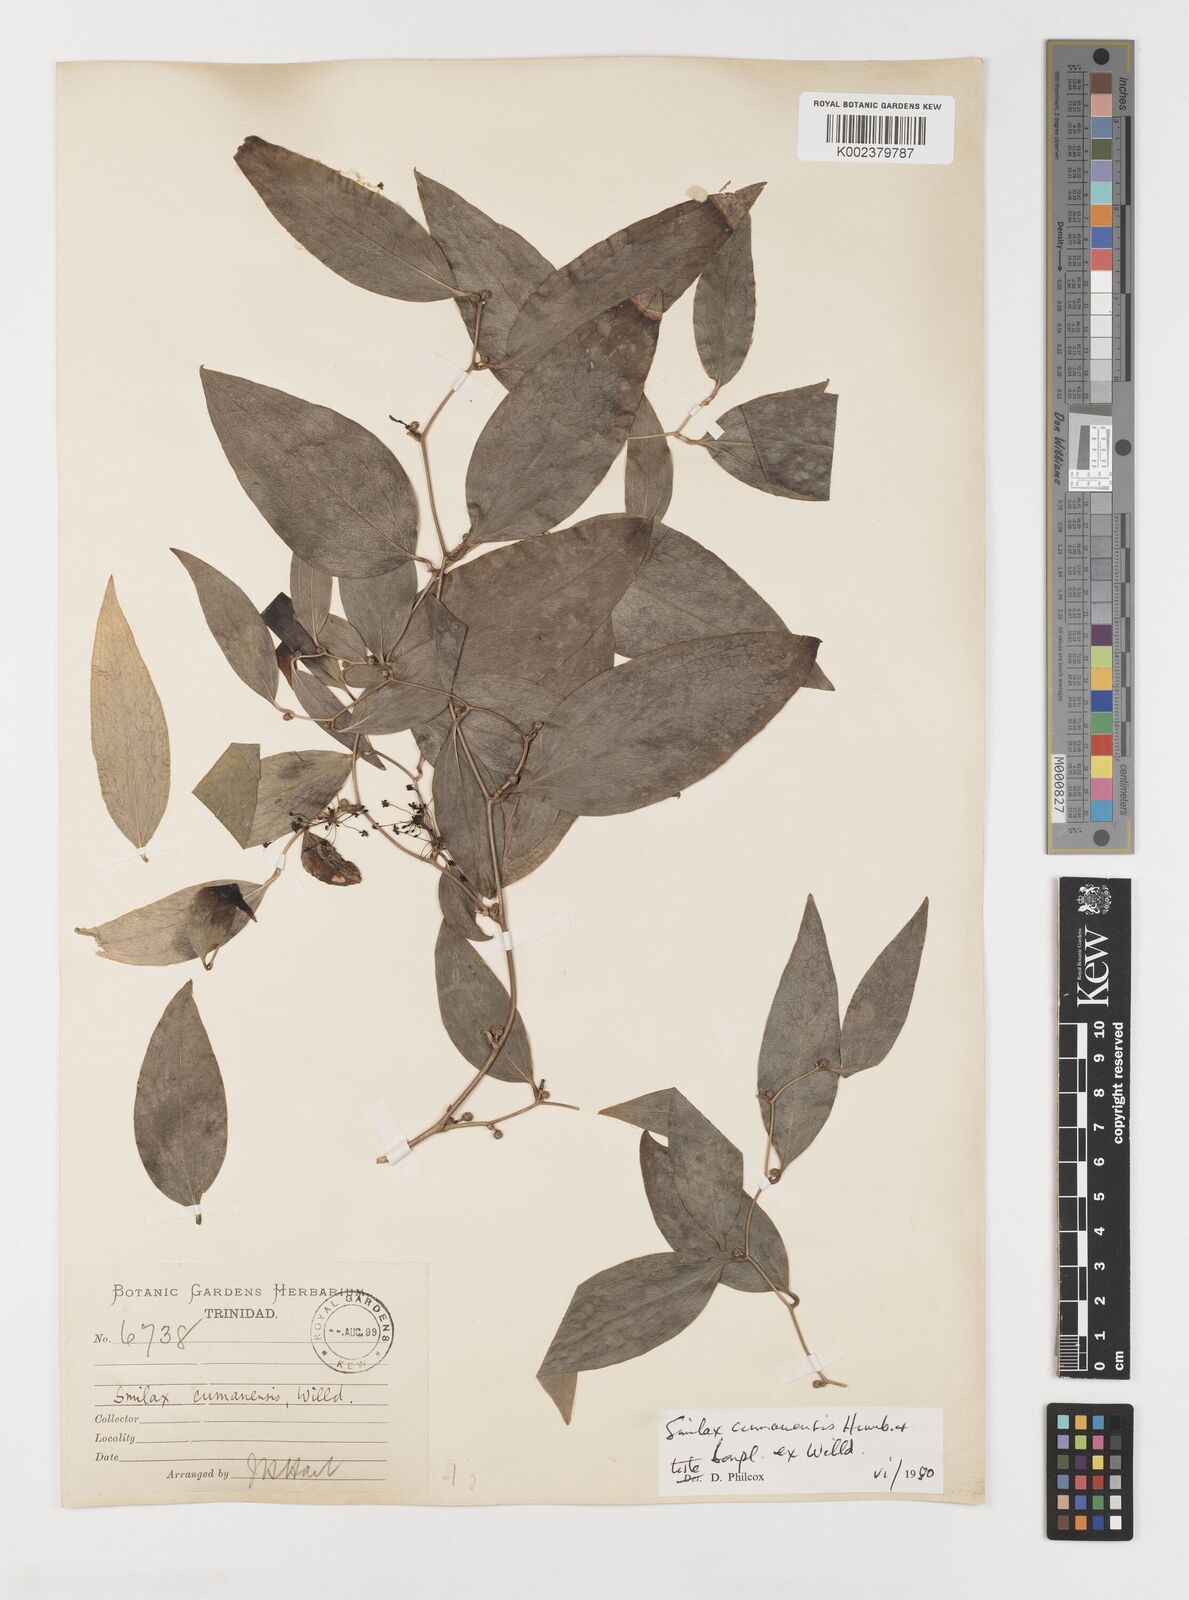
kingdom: Plantae
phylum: Tracheophyta
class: Liliopsida
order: Liliales
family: Smilacaceae
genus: Smilax
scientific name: Smilax oblongata
